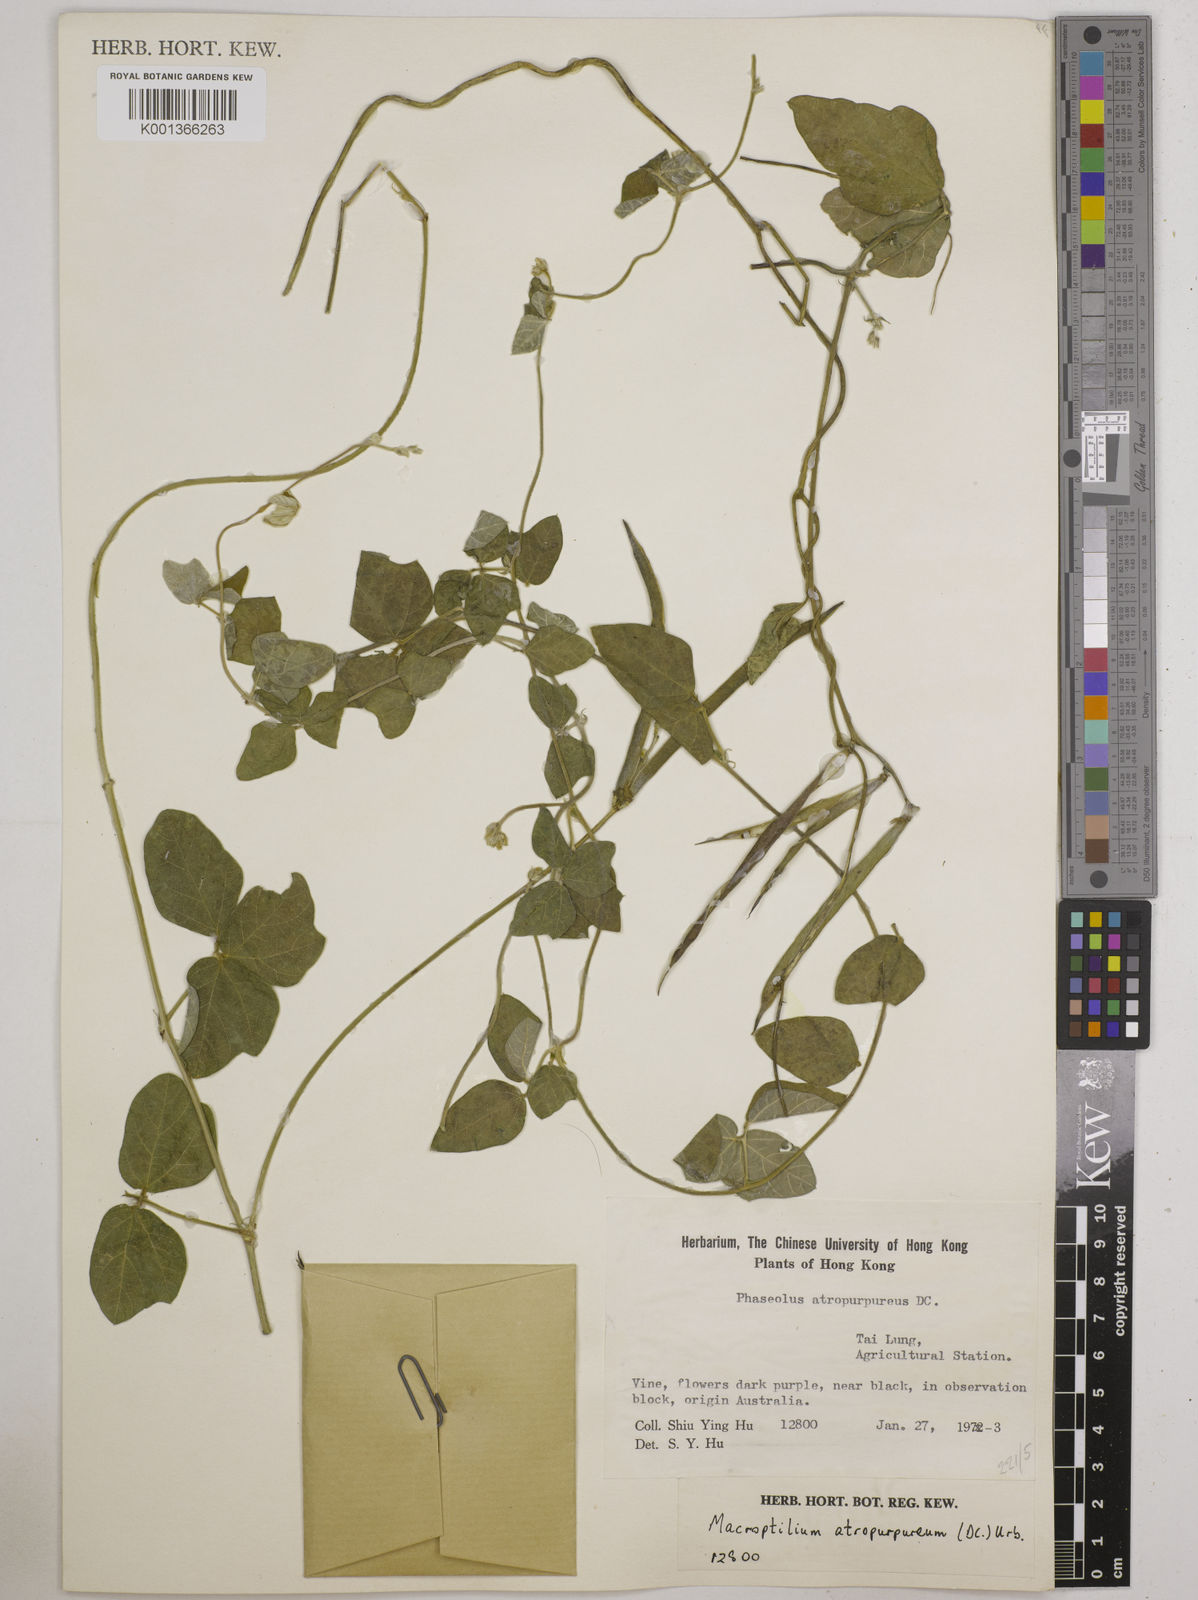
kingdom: Plantae
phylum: Tracheophyta
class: Magnoliopsida
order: Fabales
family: Fabaceae
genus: Macroptilium
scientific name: Macroptilium atropurpureum
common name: Purple bushbean
